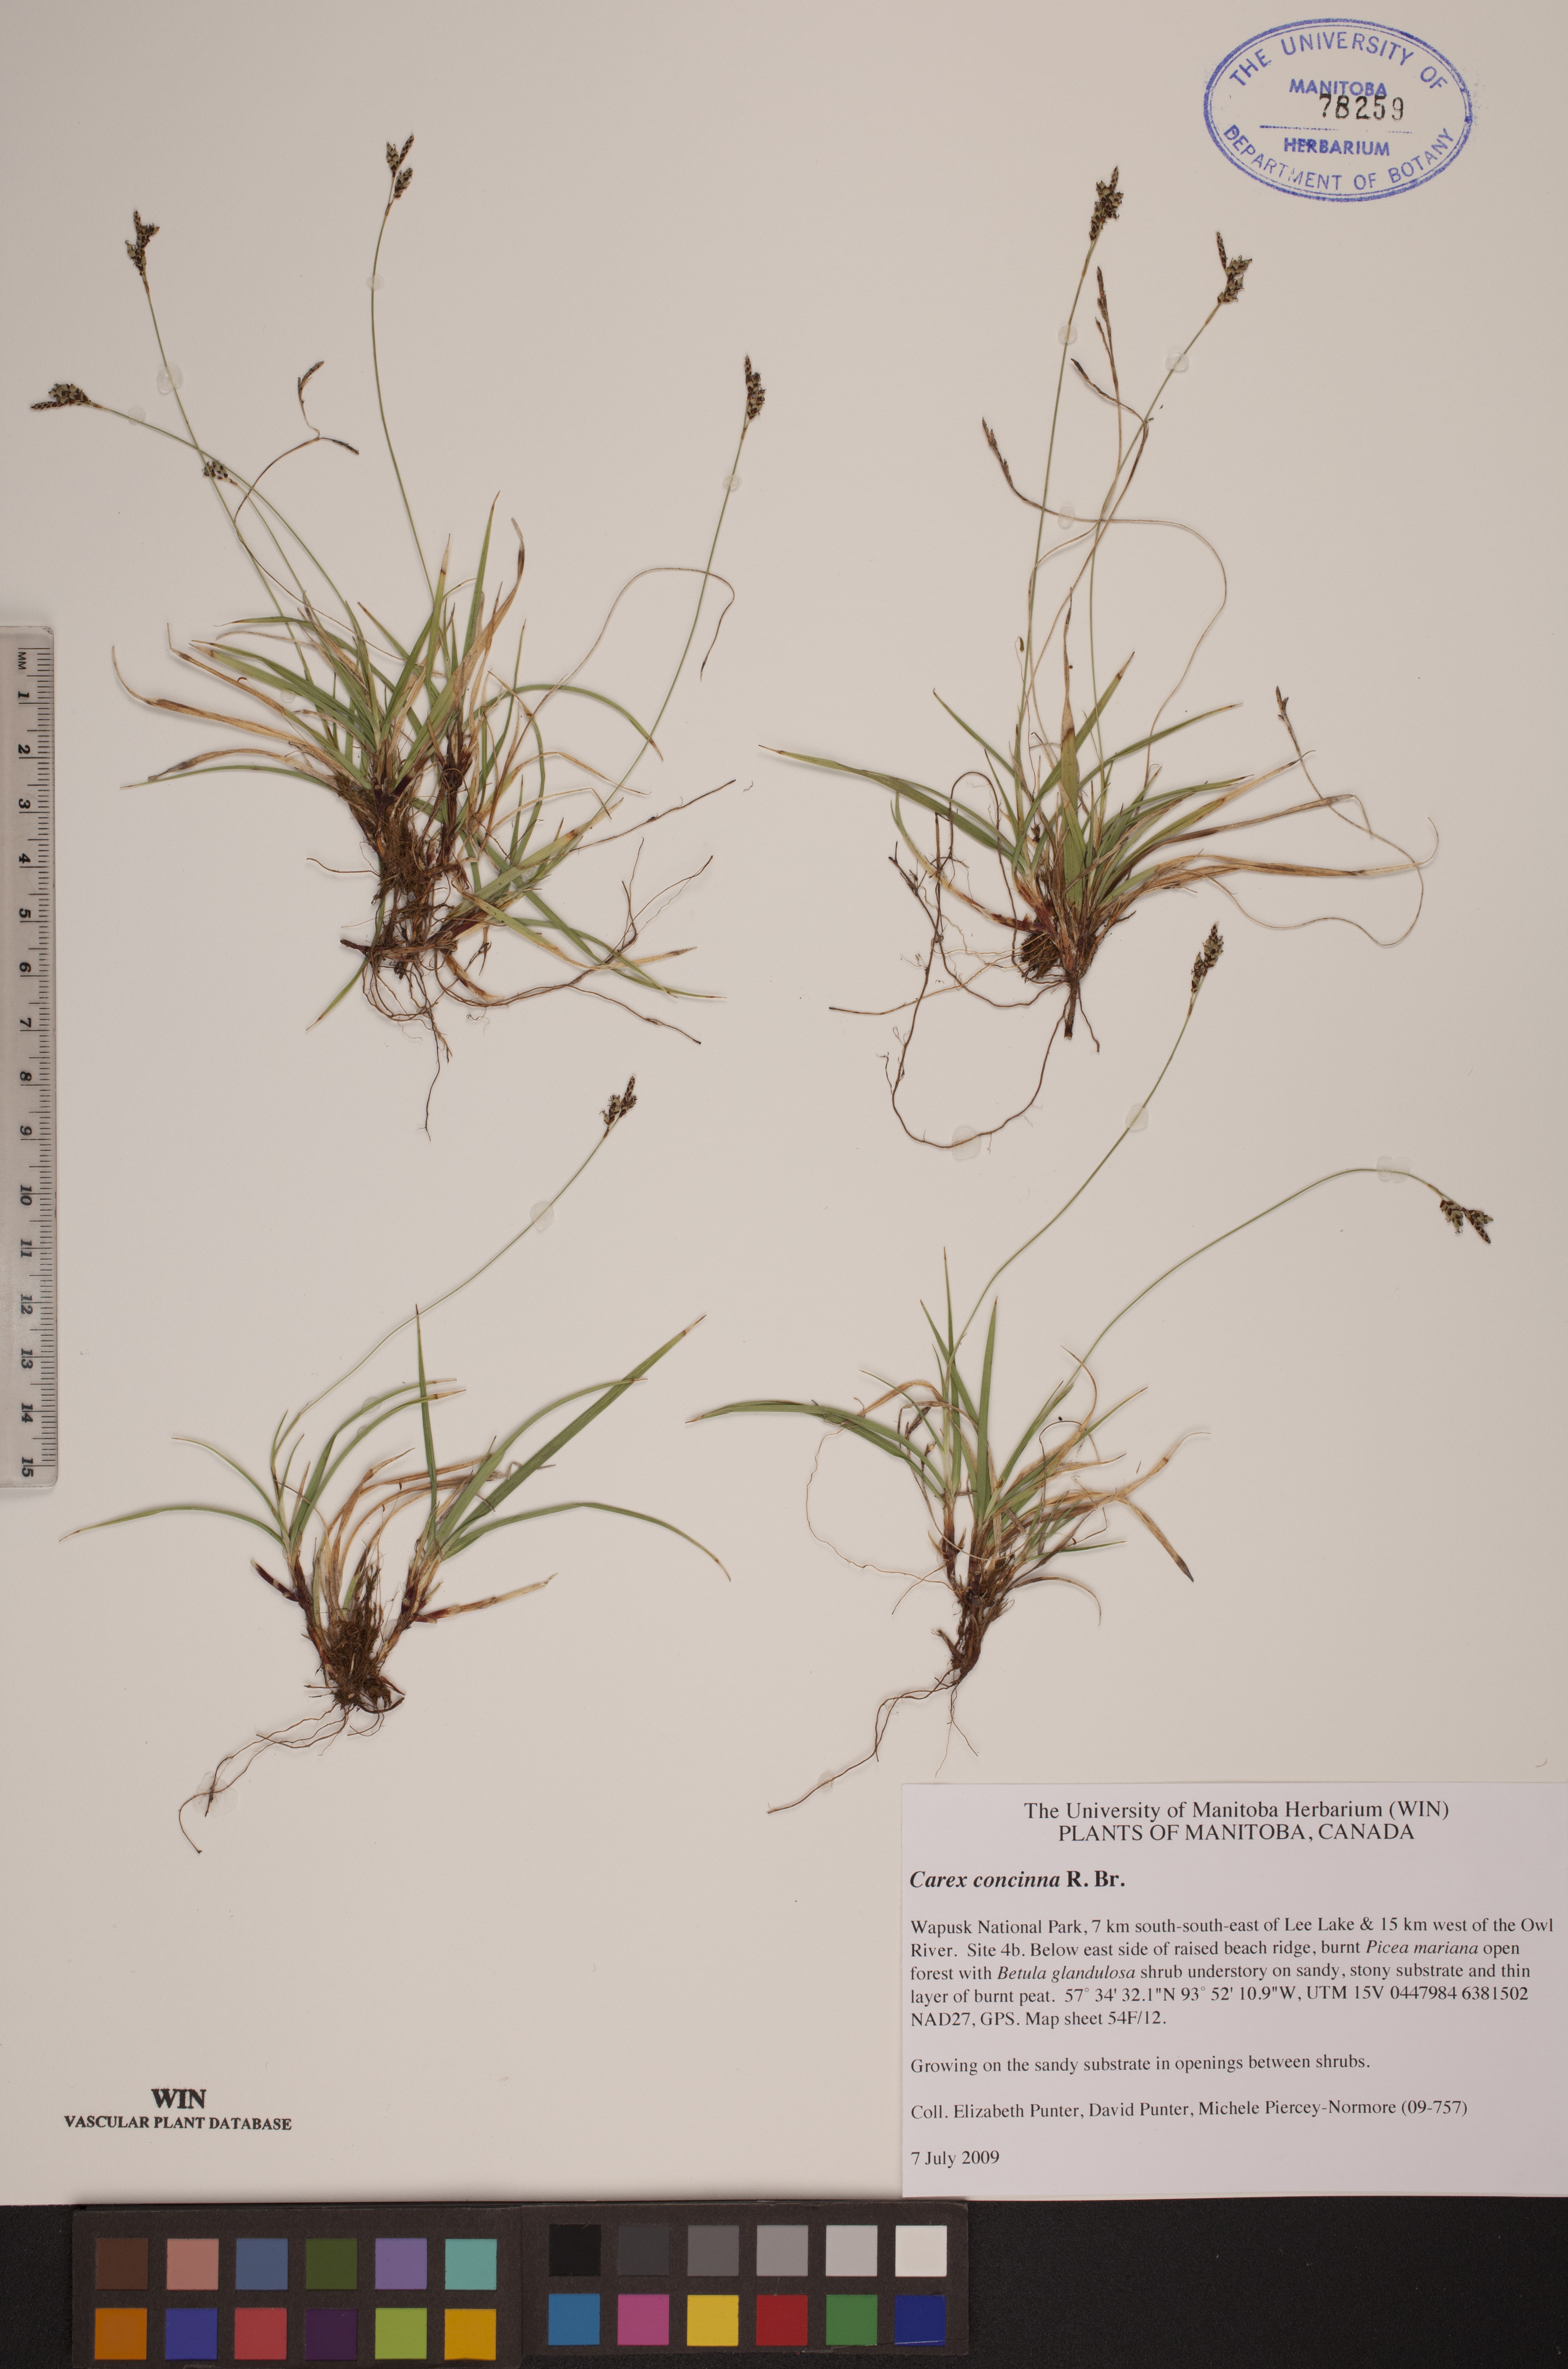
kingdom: Plantae
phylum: Tracheophyta
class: Liliopsida
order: Poales
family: Cyperaceae
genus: Carex
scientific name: Carex concinna
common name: Beautiful sedge
